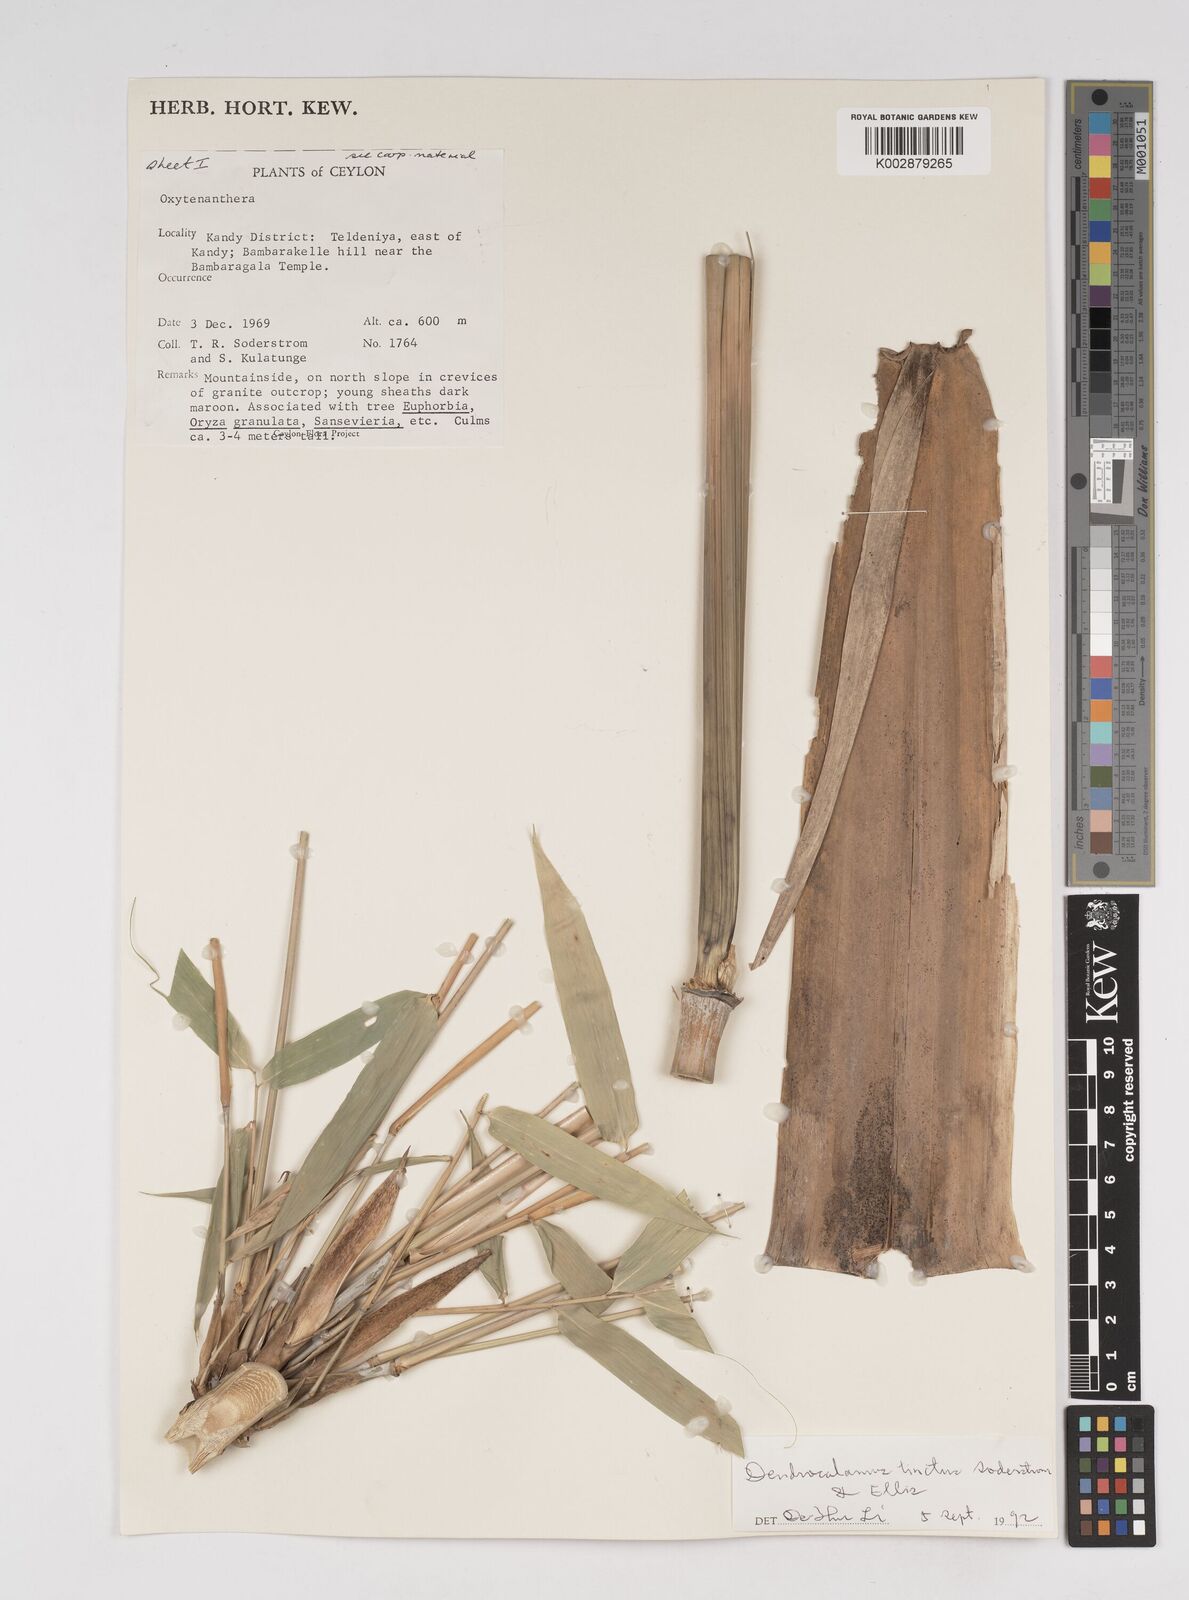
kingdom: Plantae
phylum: Tracheophyta
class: Liliopsida
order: Poales
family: Poaceae
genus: Dendrocalamus
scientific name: Dendrocalamus
